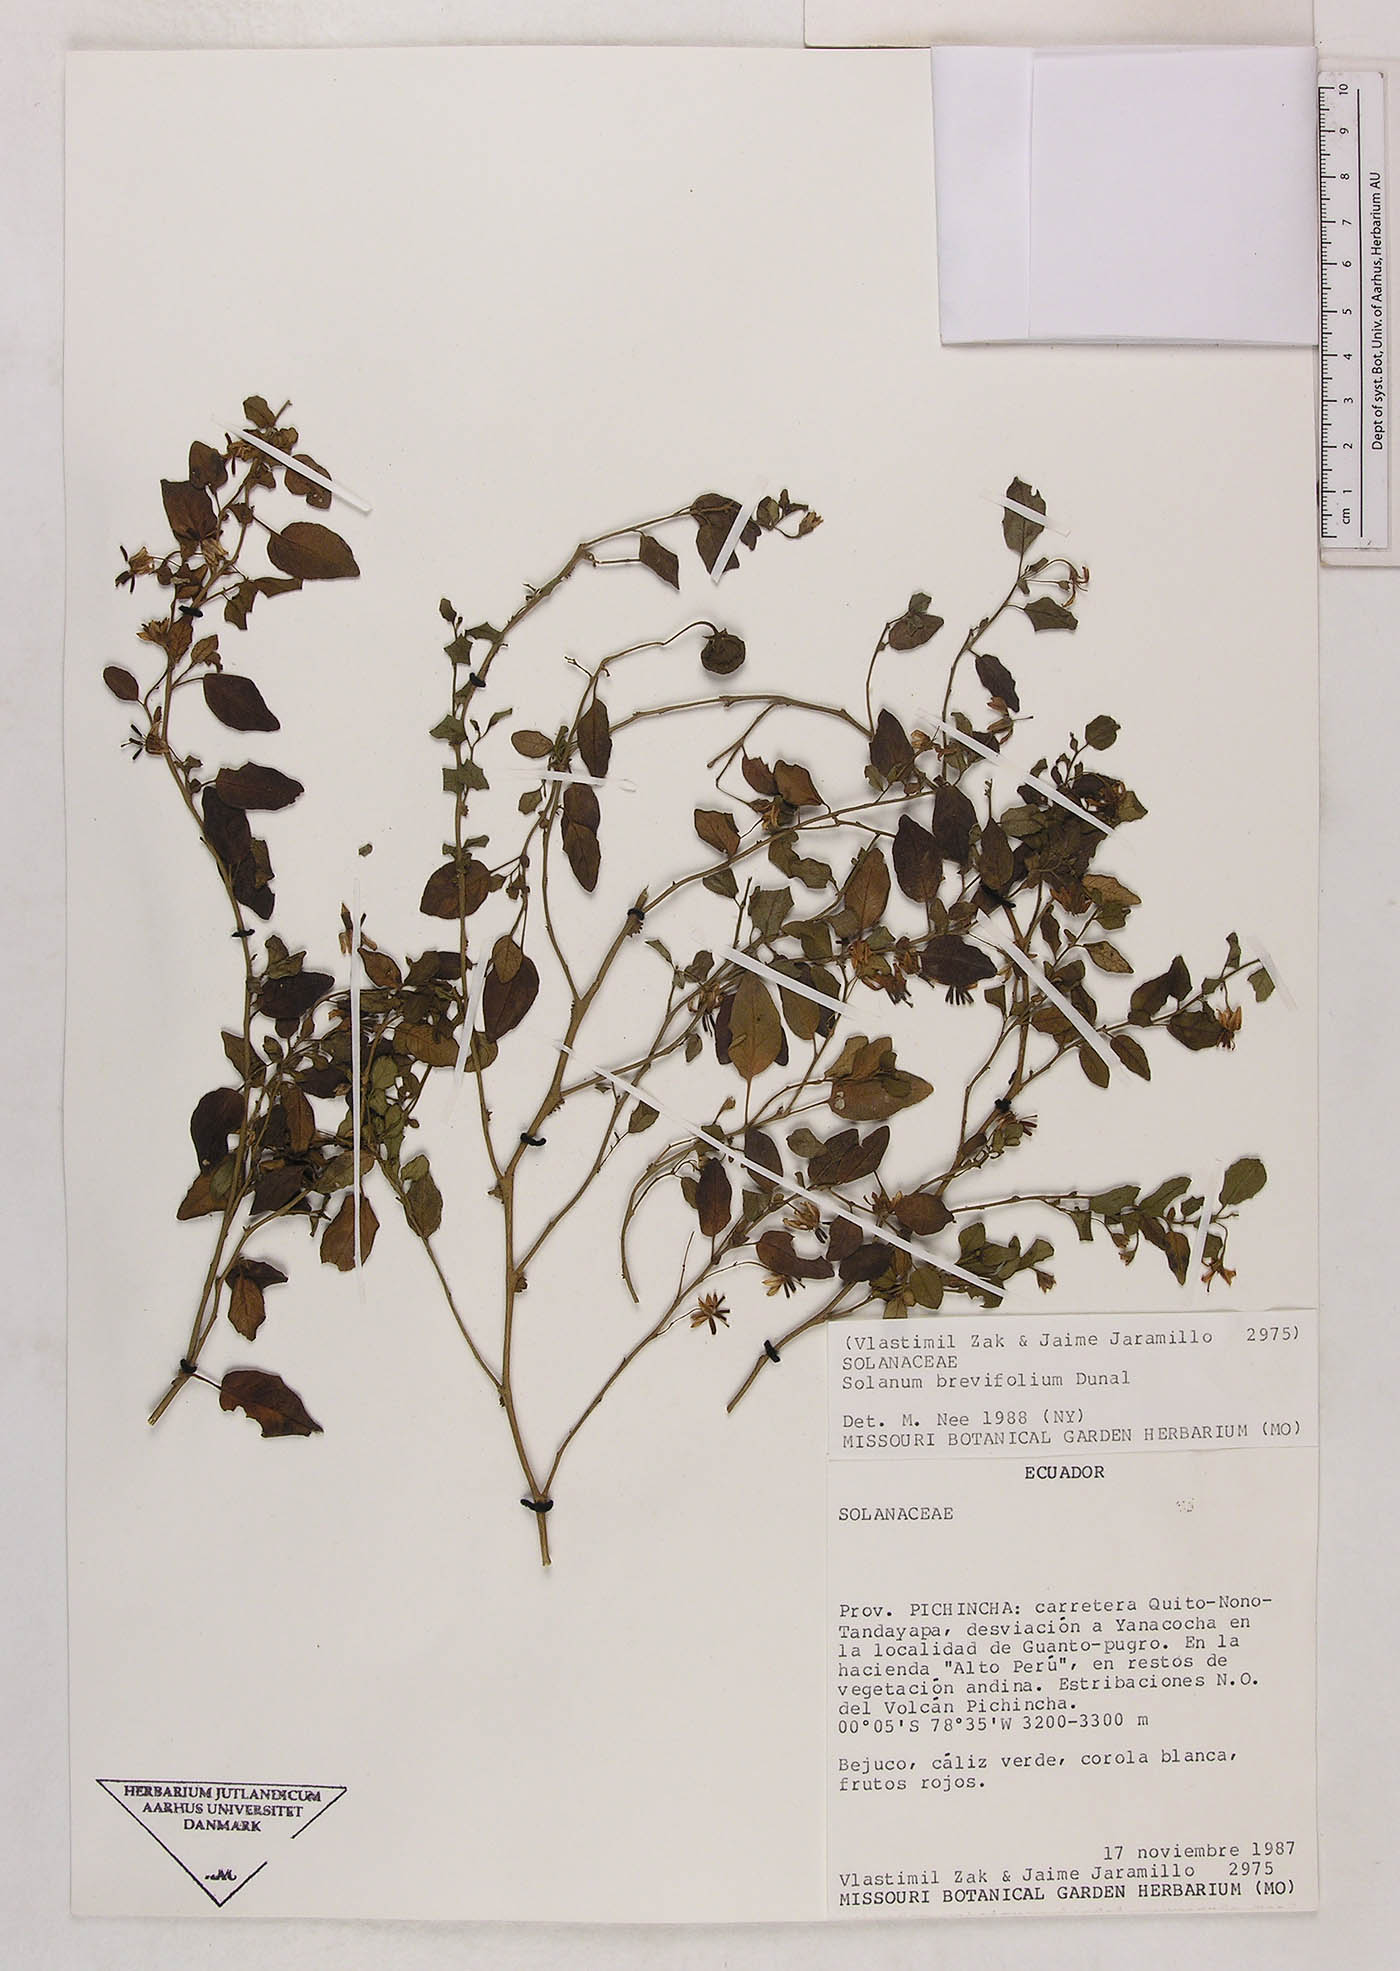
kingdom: Plantae
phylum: Tracheophyta
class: Magnoliopsida
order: Solanales
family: Solanaceae
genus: Solanum
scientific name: Solanum brevifolium
